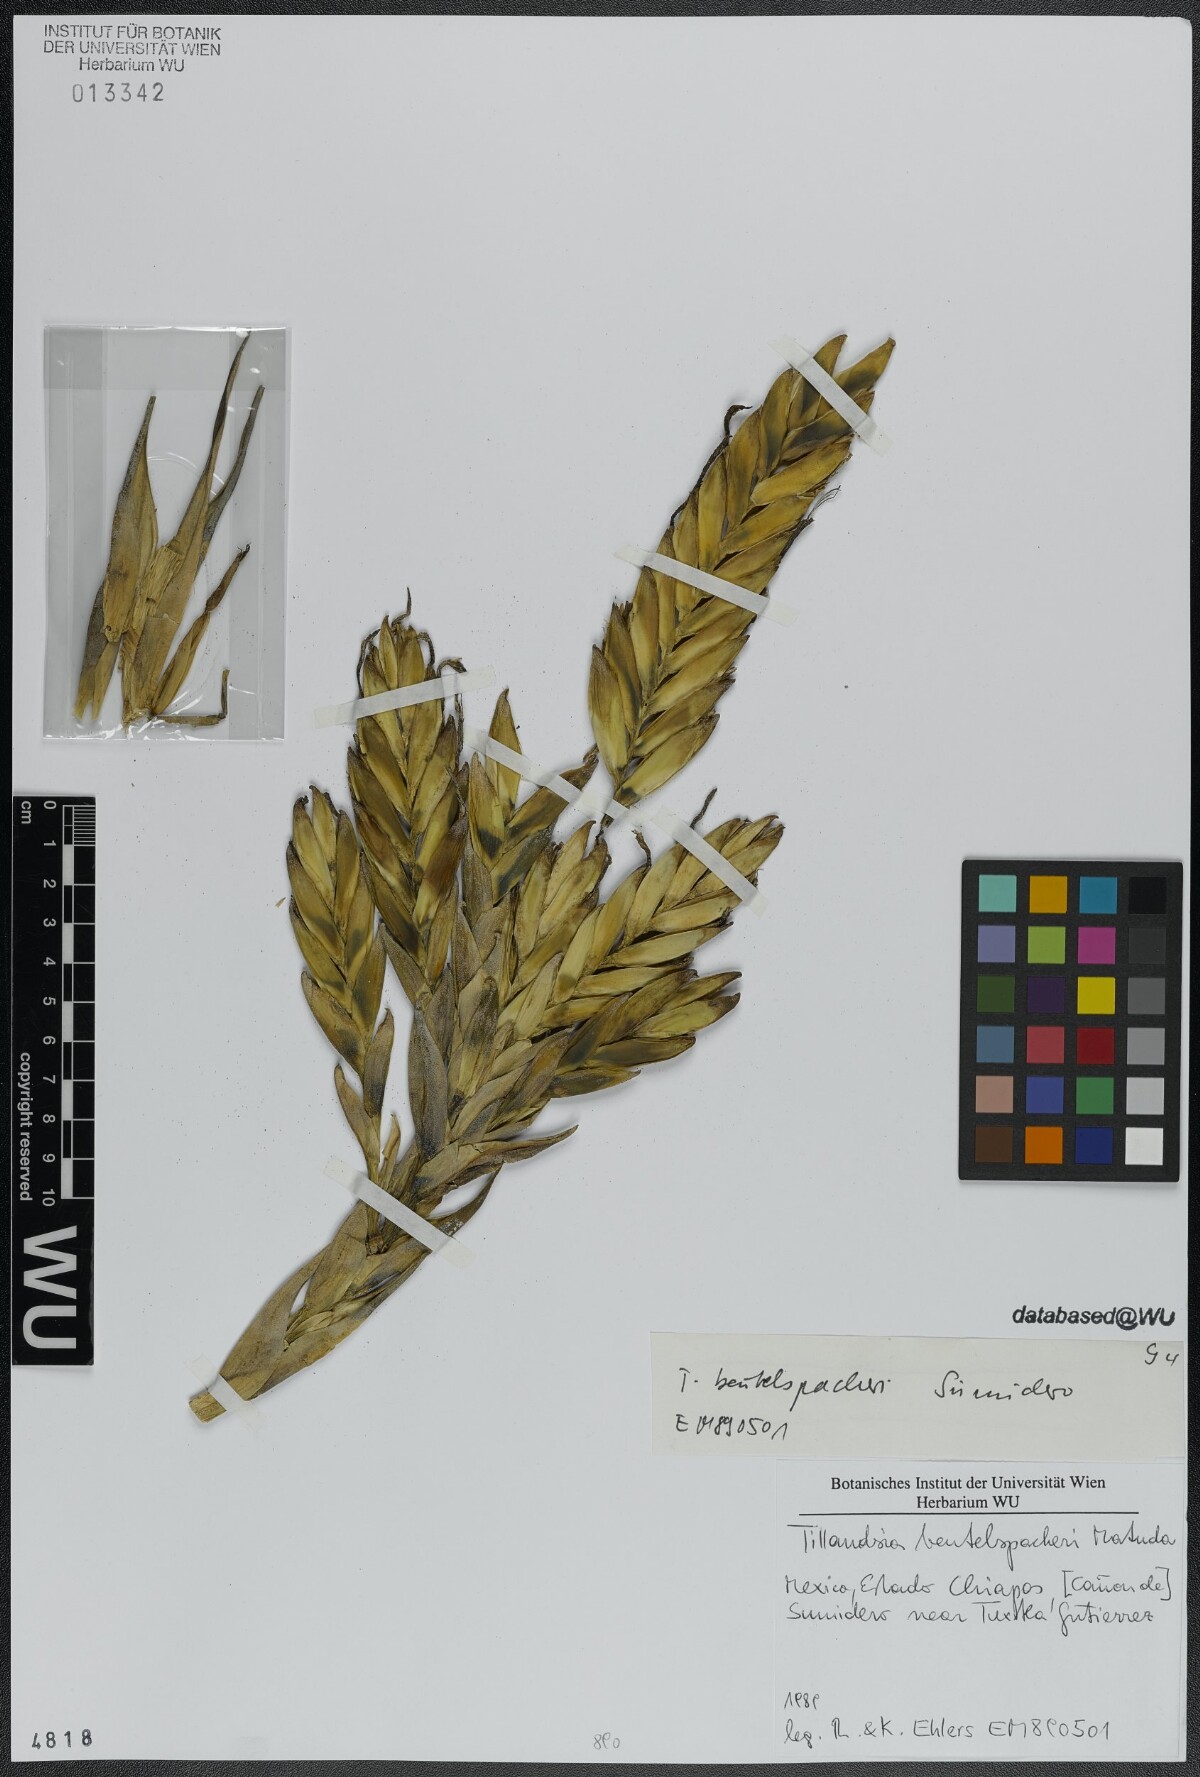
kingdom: Plantae
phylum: Tracheophyta
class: Liliopsida
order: Poales
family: Bromeliaceae
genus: Tillandsia
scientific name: Tillandsia fasciculata
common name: Giant airplant
